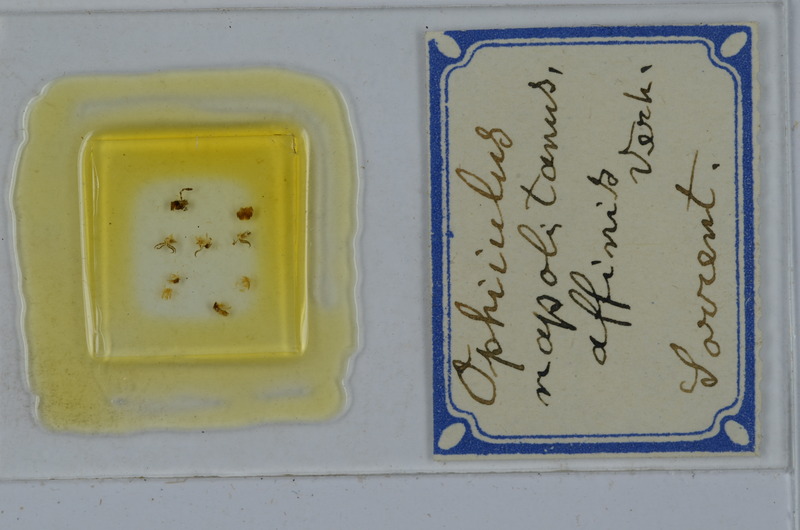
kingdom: Animalia
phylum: Arthropoda
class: Diplopoda
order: Julida
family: Julidae
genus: Ophyiulus
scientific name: Ophyiulus napolitanus
